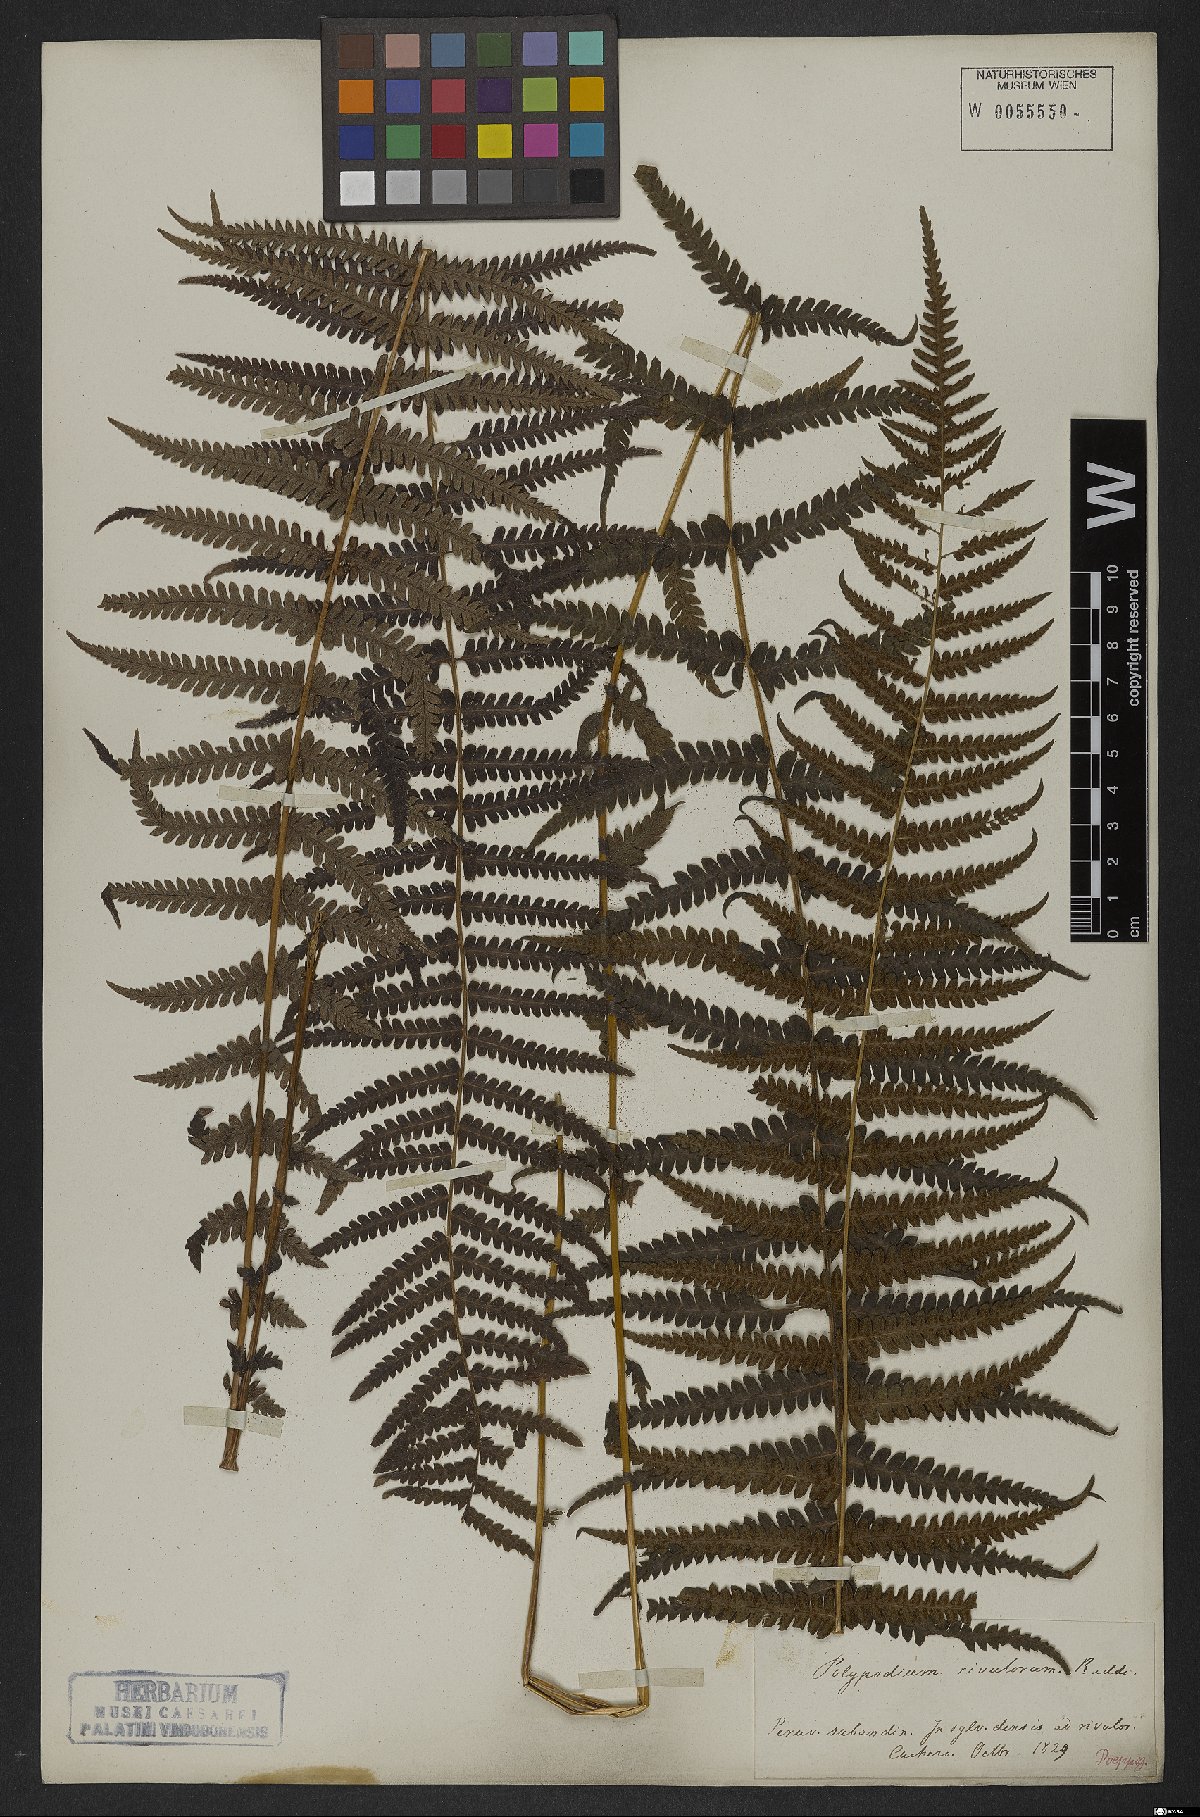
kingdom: Plantae
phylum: Tracheophyta
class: Polypodiopsida
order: Polypodiales
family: Thelypteridaceae
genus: Amauropelta
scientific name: Amauropelta opposita
